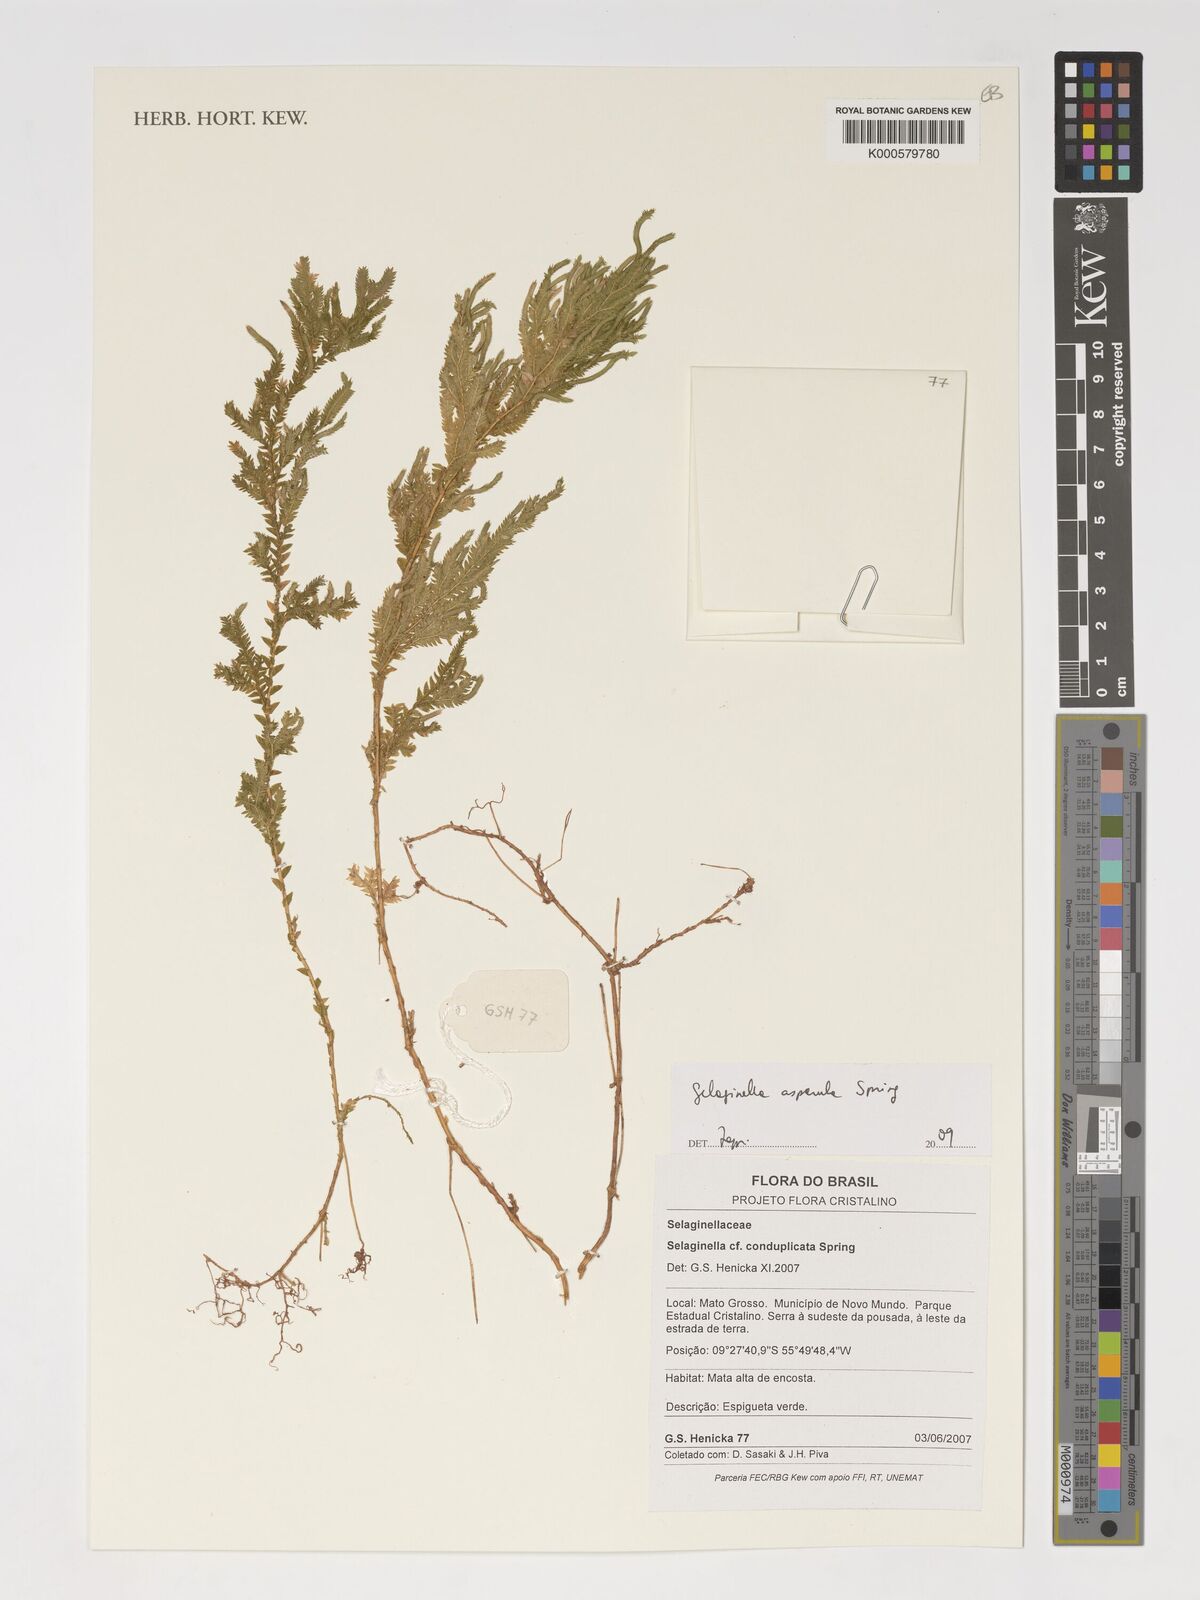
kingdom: Plantae
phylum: Tracheophyta
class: Lycopodiopsida
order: Selaginellales
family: Selaginellaceae
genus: Selaginella
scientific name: Selaginella asperula
